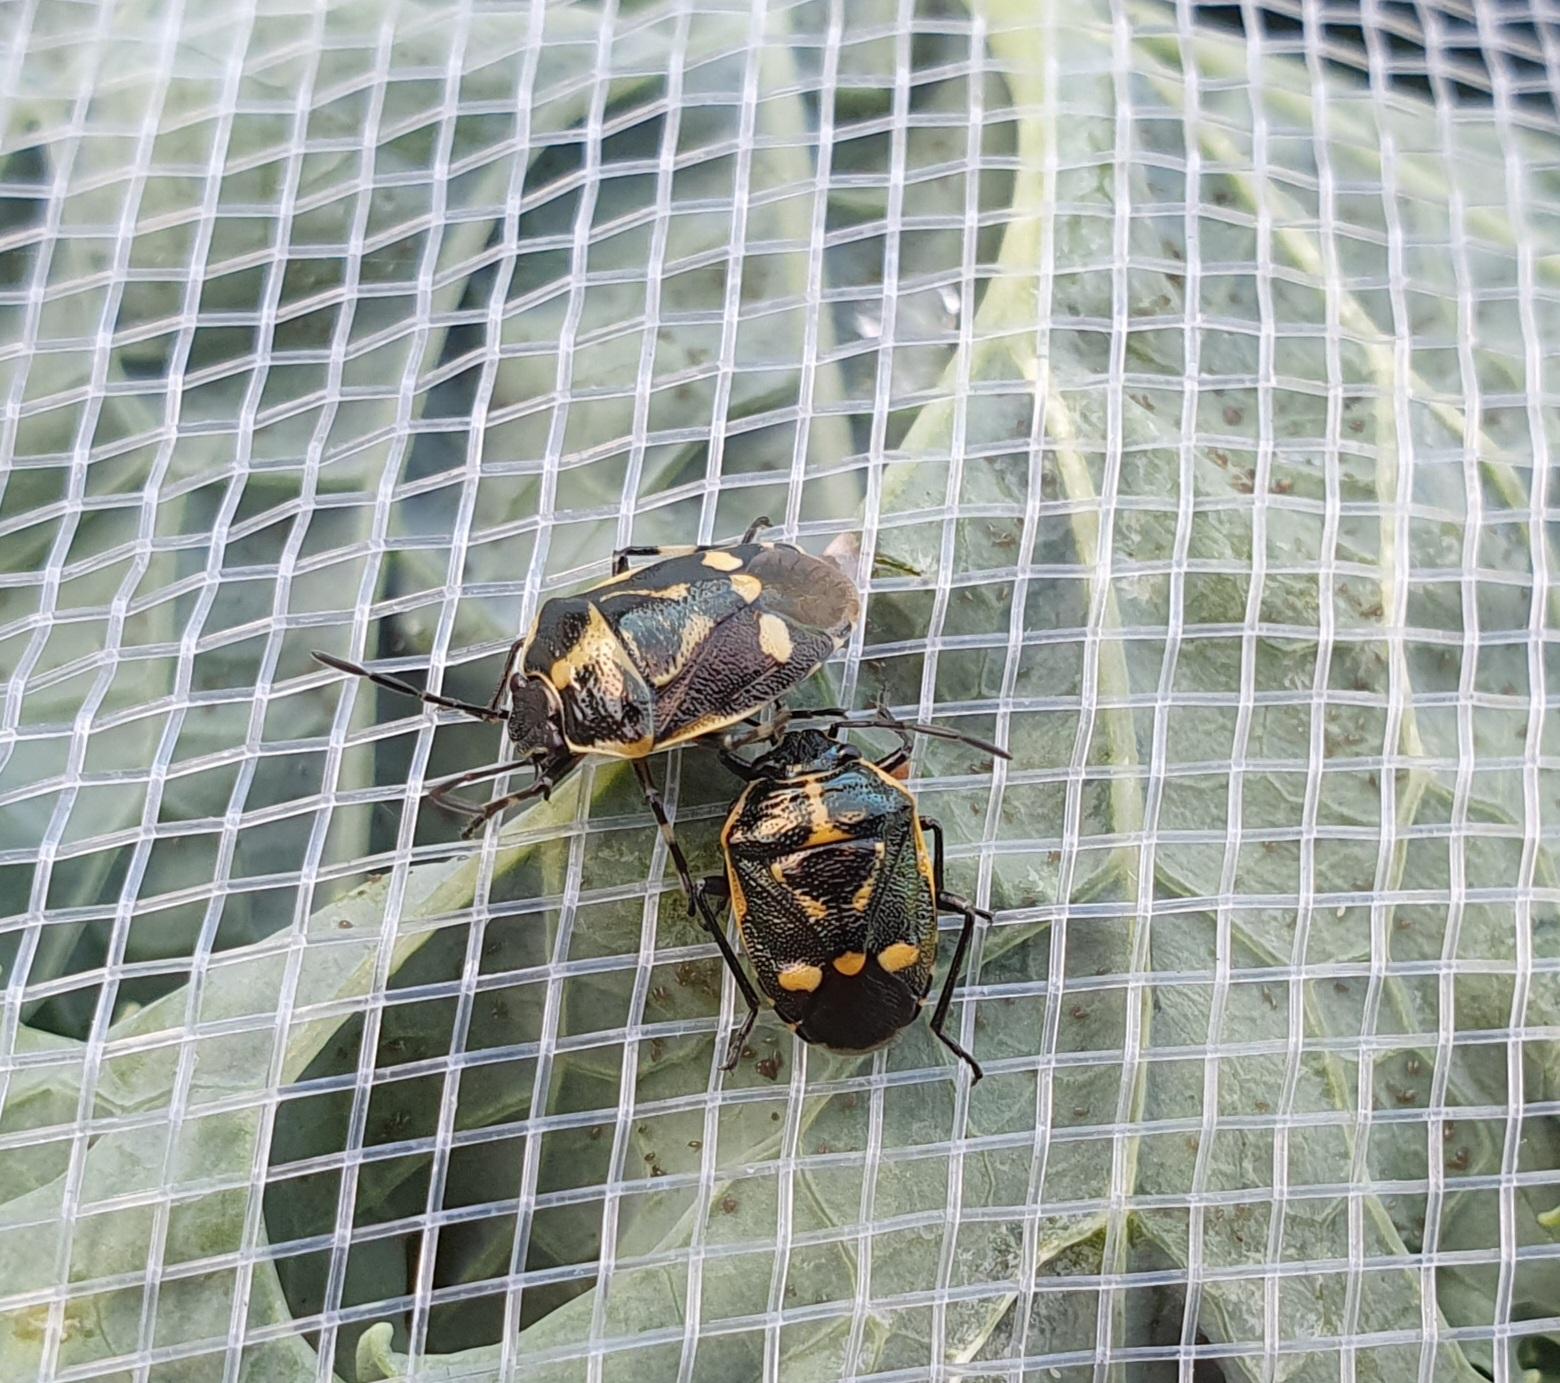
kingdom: Animalia
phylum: Arthropoda
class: Insecta
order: Hemiptera
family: Pentatomidae
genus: Eurydema
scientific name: Eurydema oleracea
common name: Almindelig kåltæge
